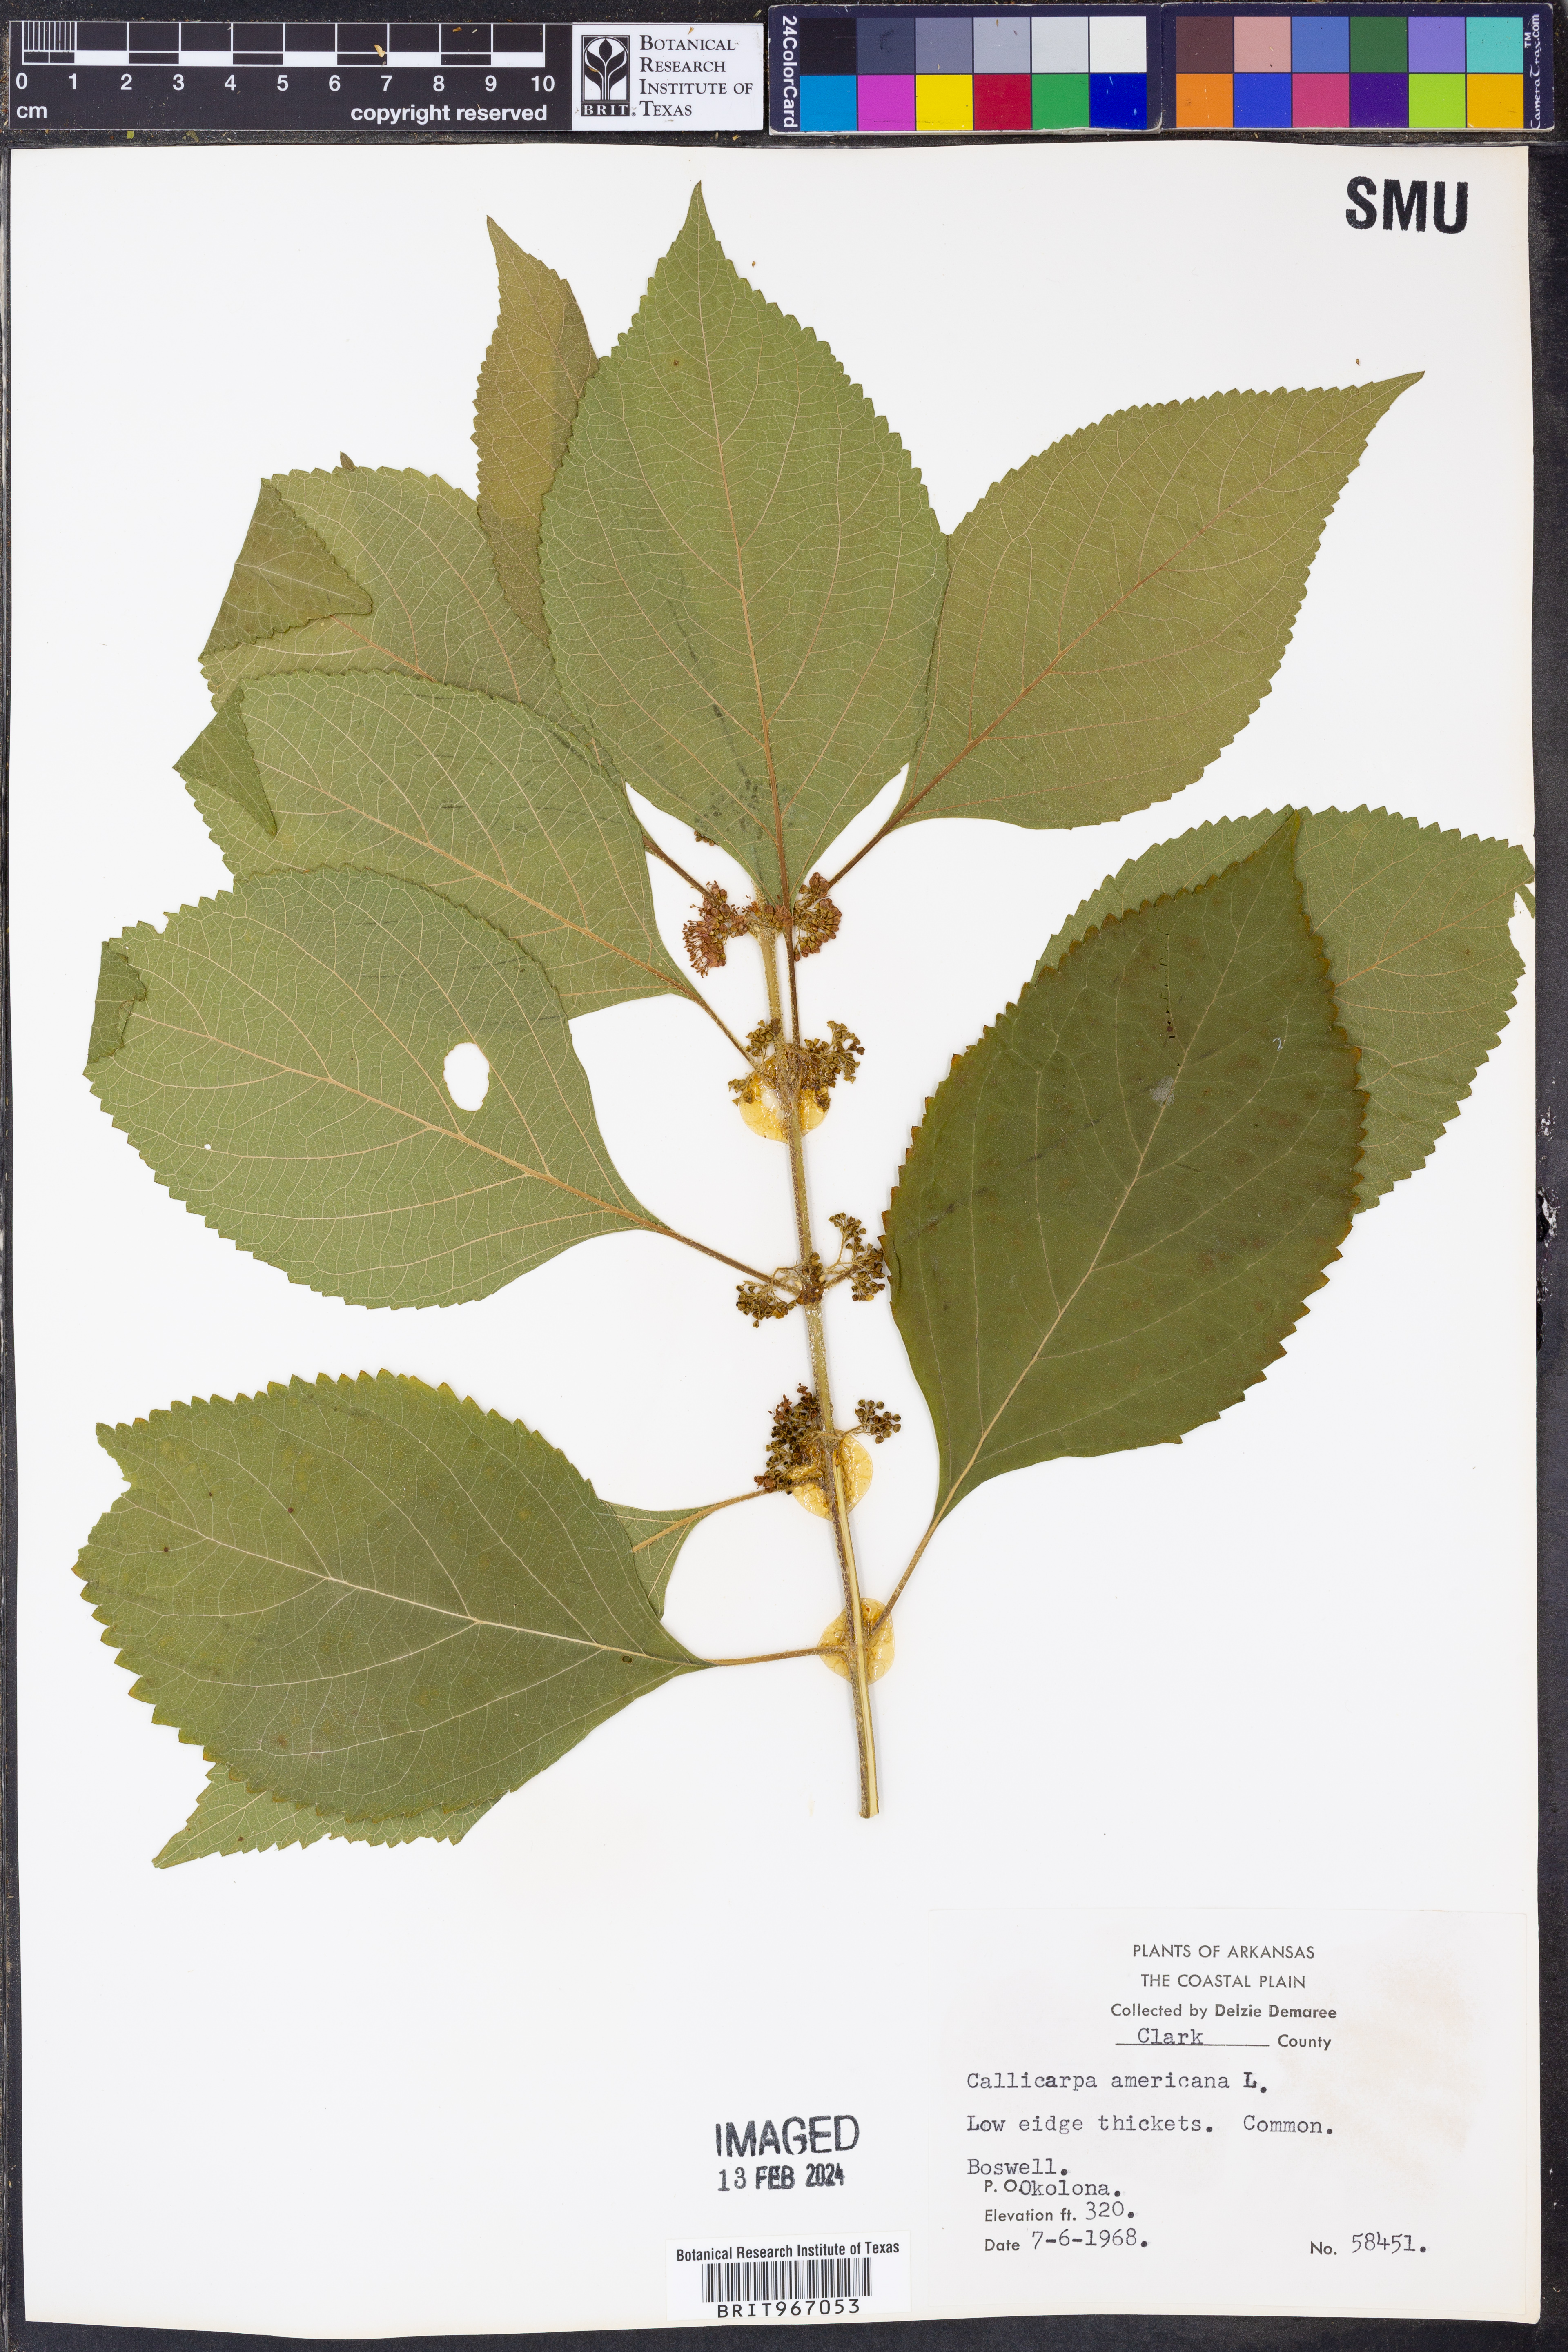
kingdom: Plantae
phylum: Tracheophyta
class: Magnoliopsida
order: Lamiales
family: Lamiaceae
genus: Callicarpa
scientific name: Callicarpa americana
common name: American beautyberry
